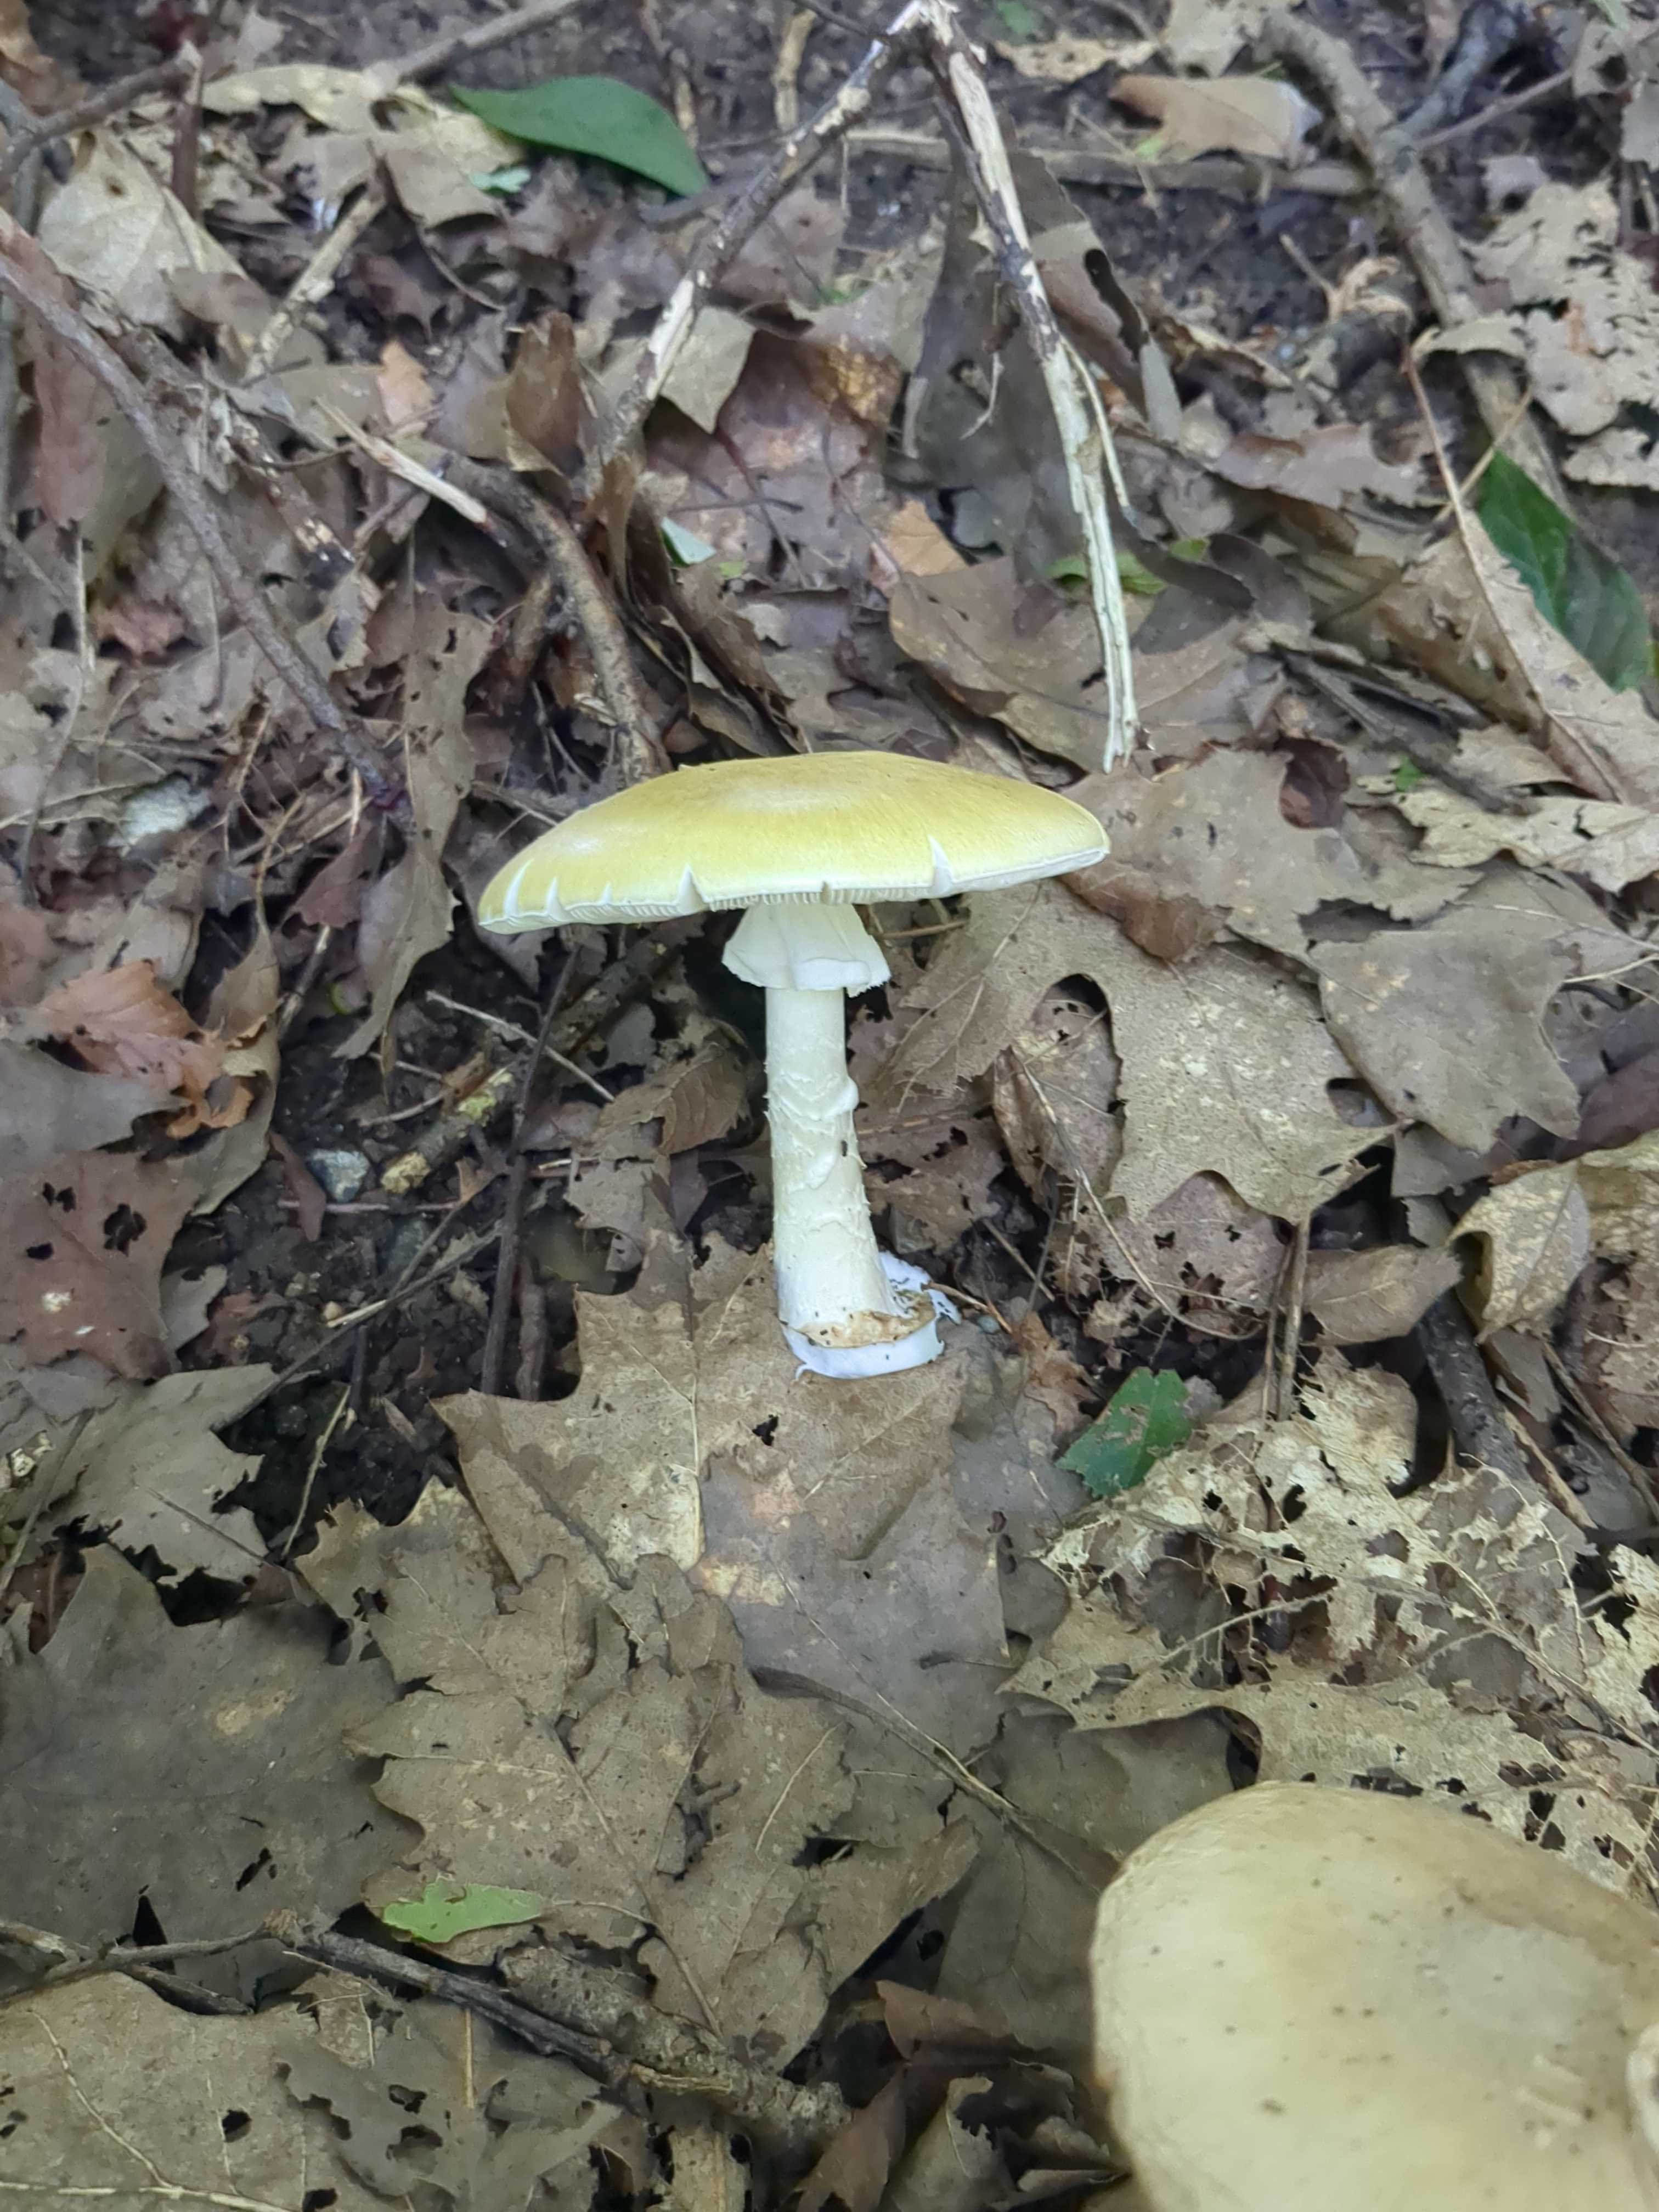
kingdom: Fungi
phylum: Basidiomycota
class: Agaricomycetes
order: Agaricales
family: Amanitaceae
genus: Amanita
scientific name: Amanita phalloides
